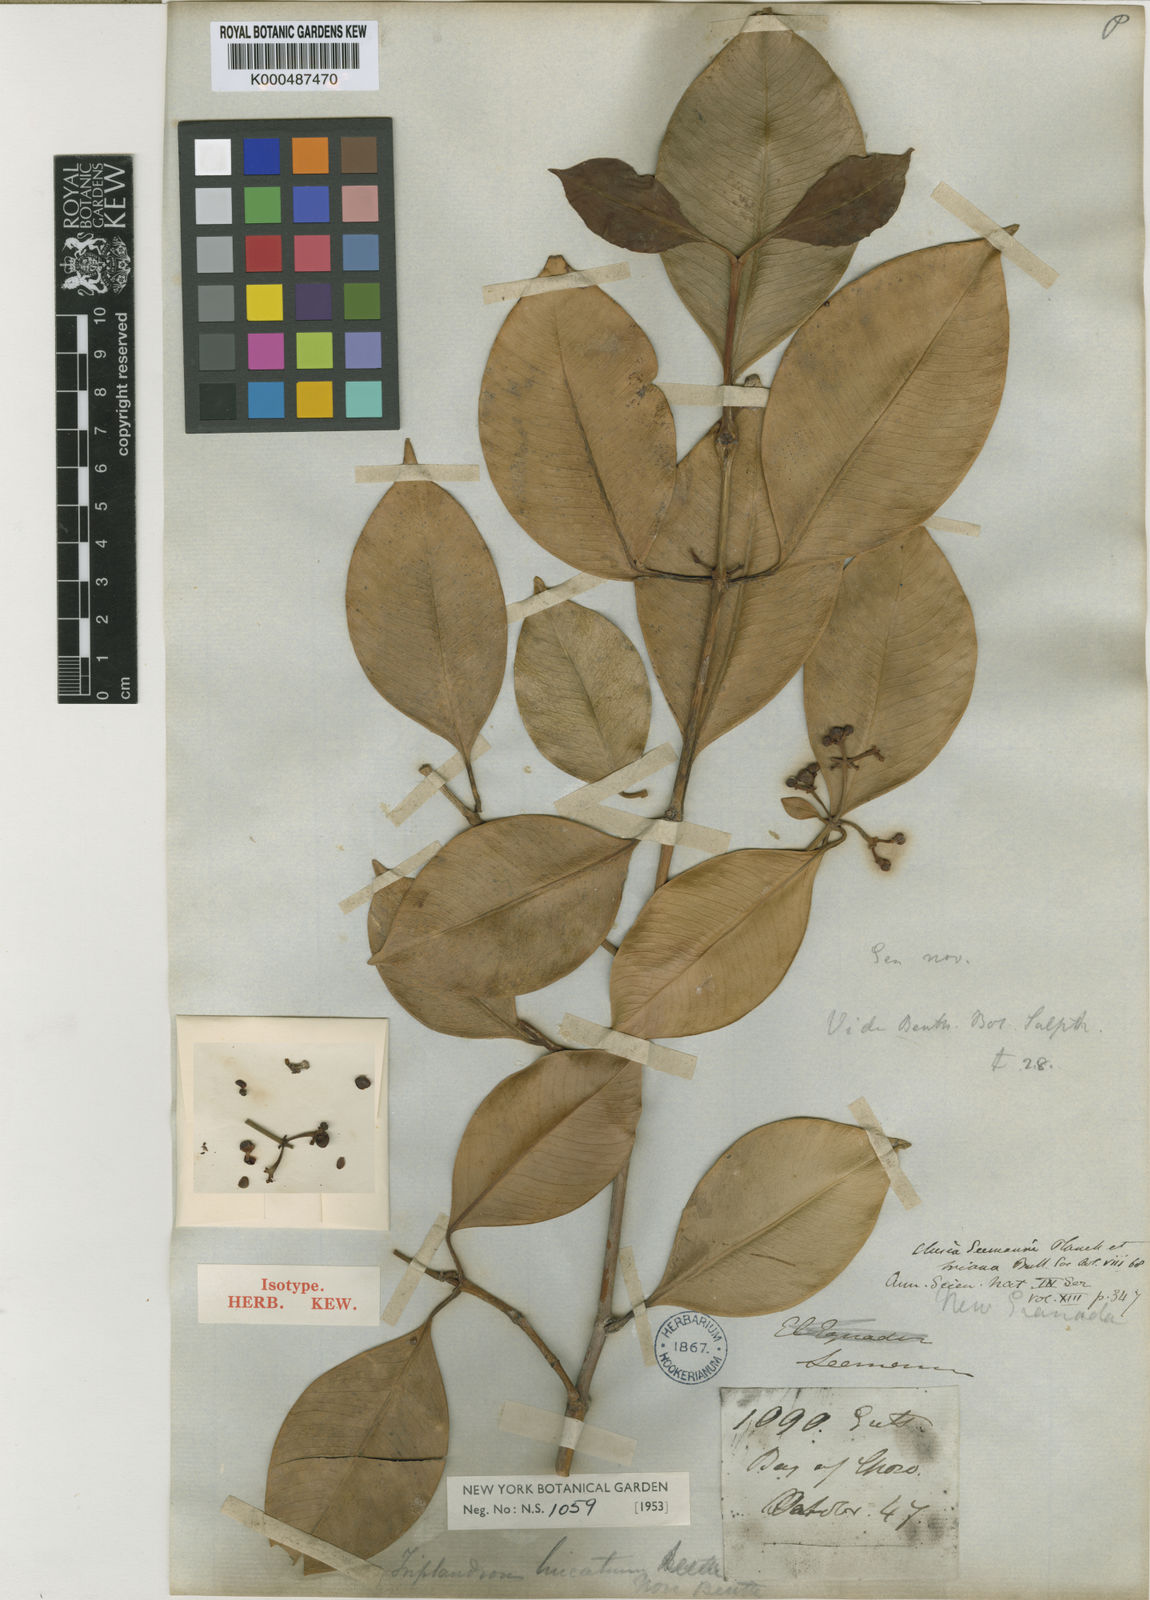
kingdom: Plantae
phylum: Tracheophyta
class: Magnoliopsida
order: Malpighiales
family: Clusiaceae
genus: Clusia
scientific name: Clusia lineata
